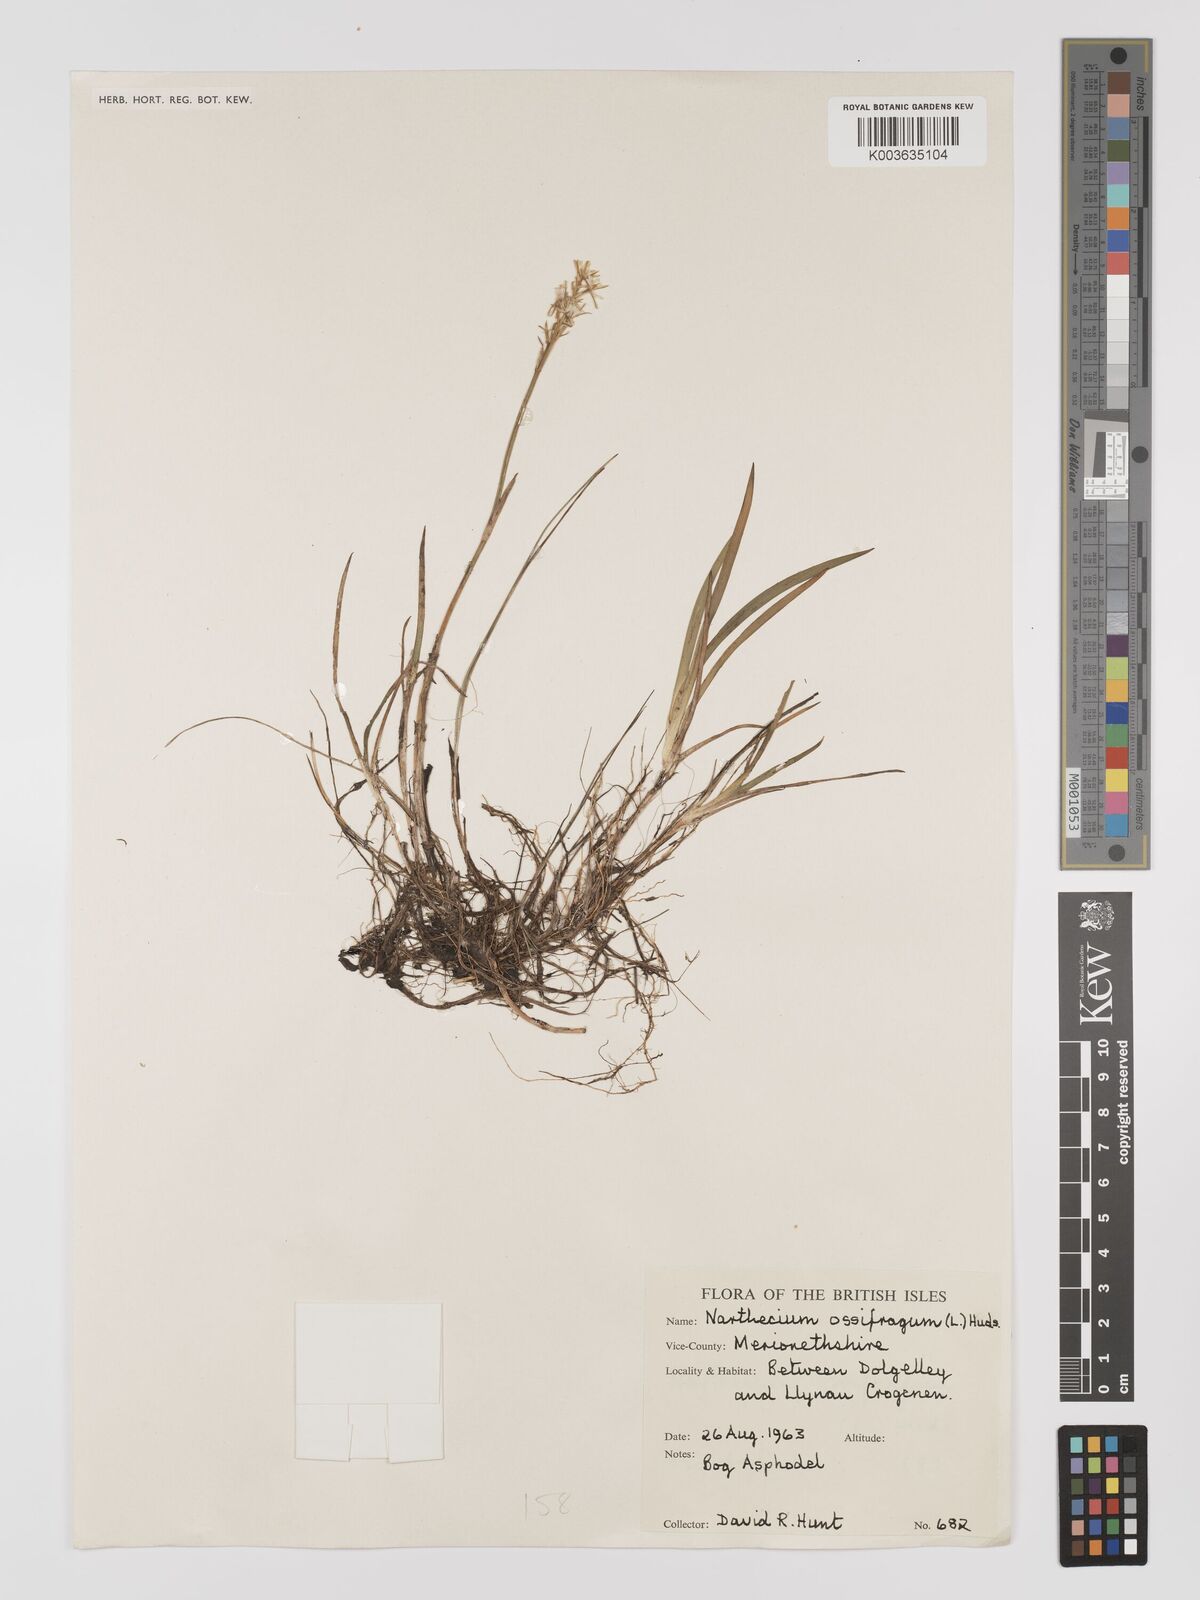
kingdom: Plantae
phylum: Tracheophyta
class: Liliopsida
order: Dioscoreales
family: Nartheciaceae
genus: Narthecium
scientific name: Narthecium
